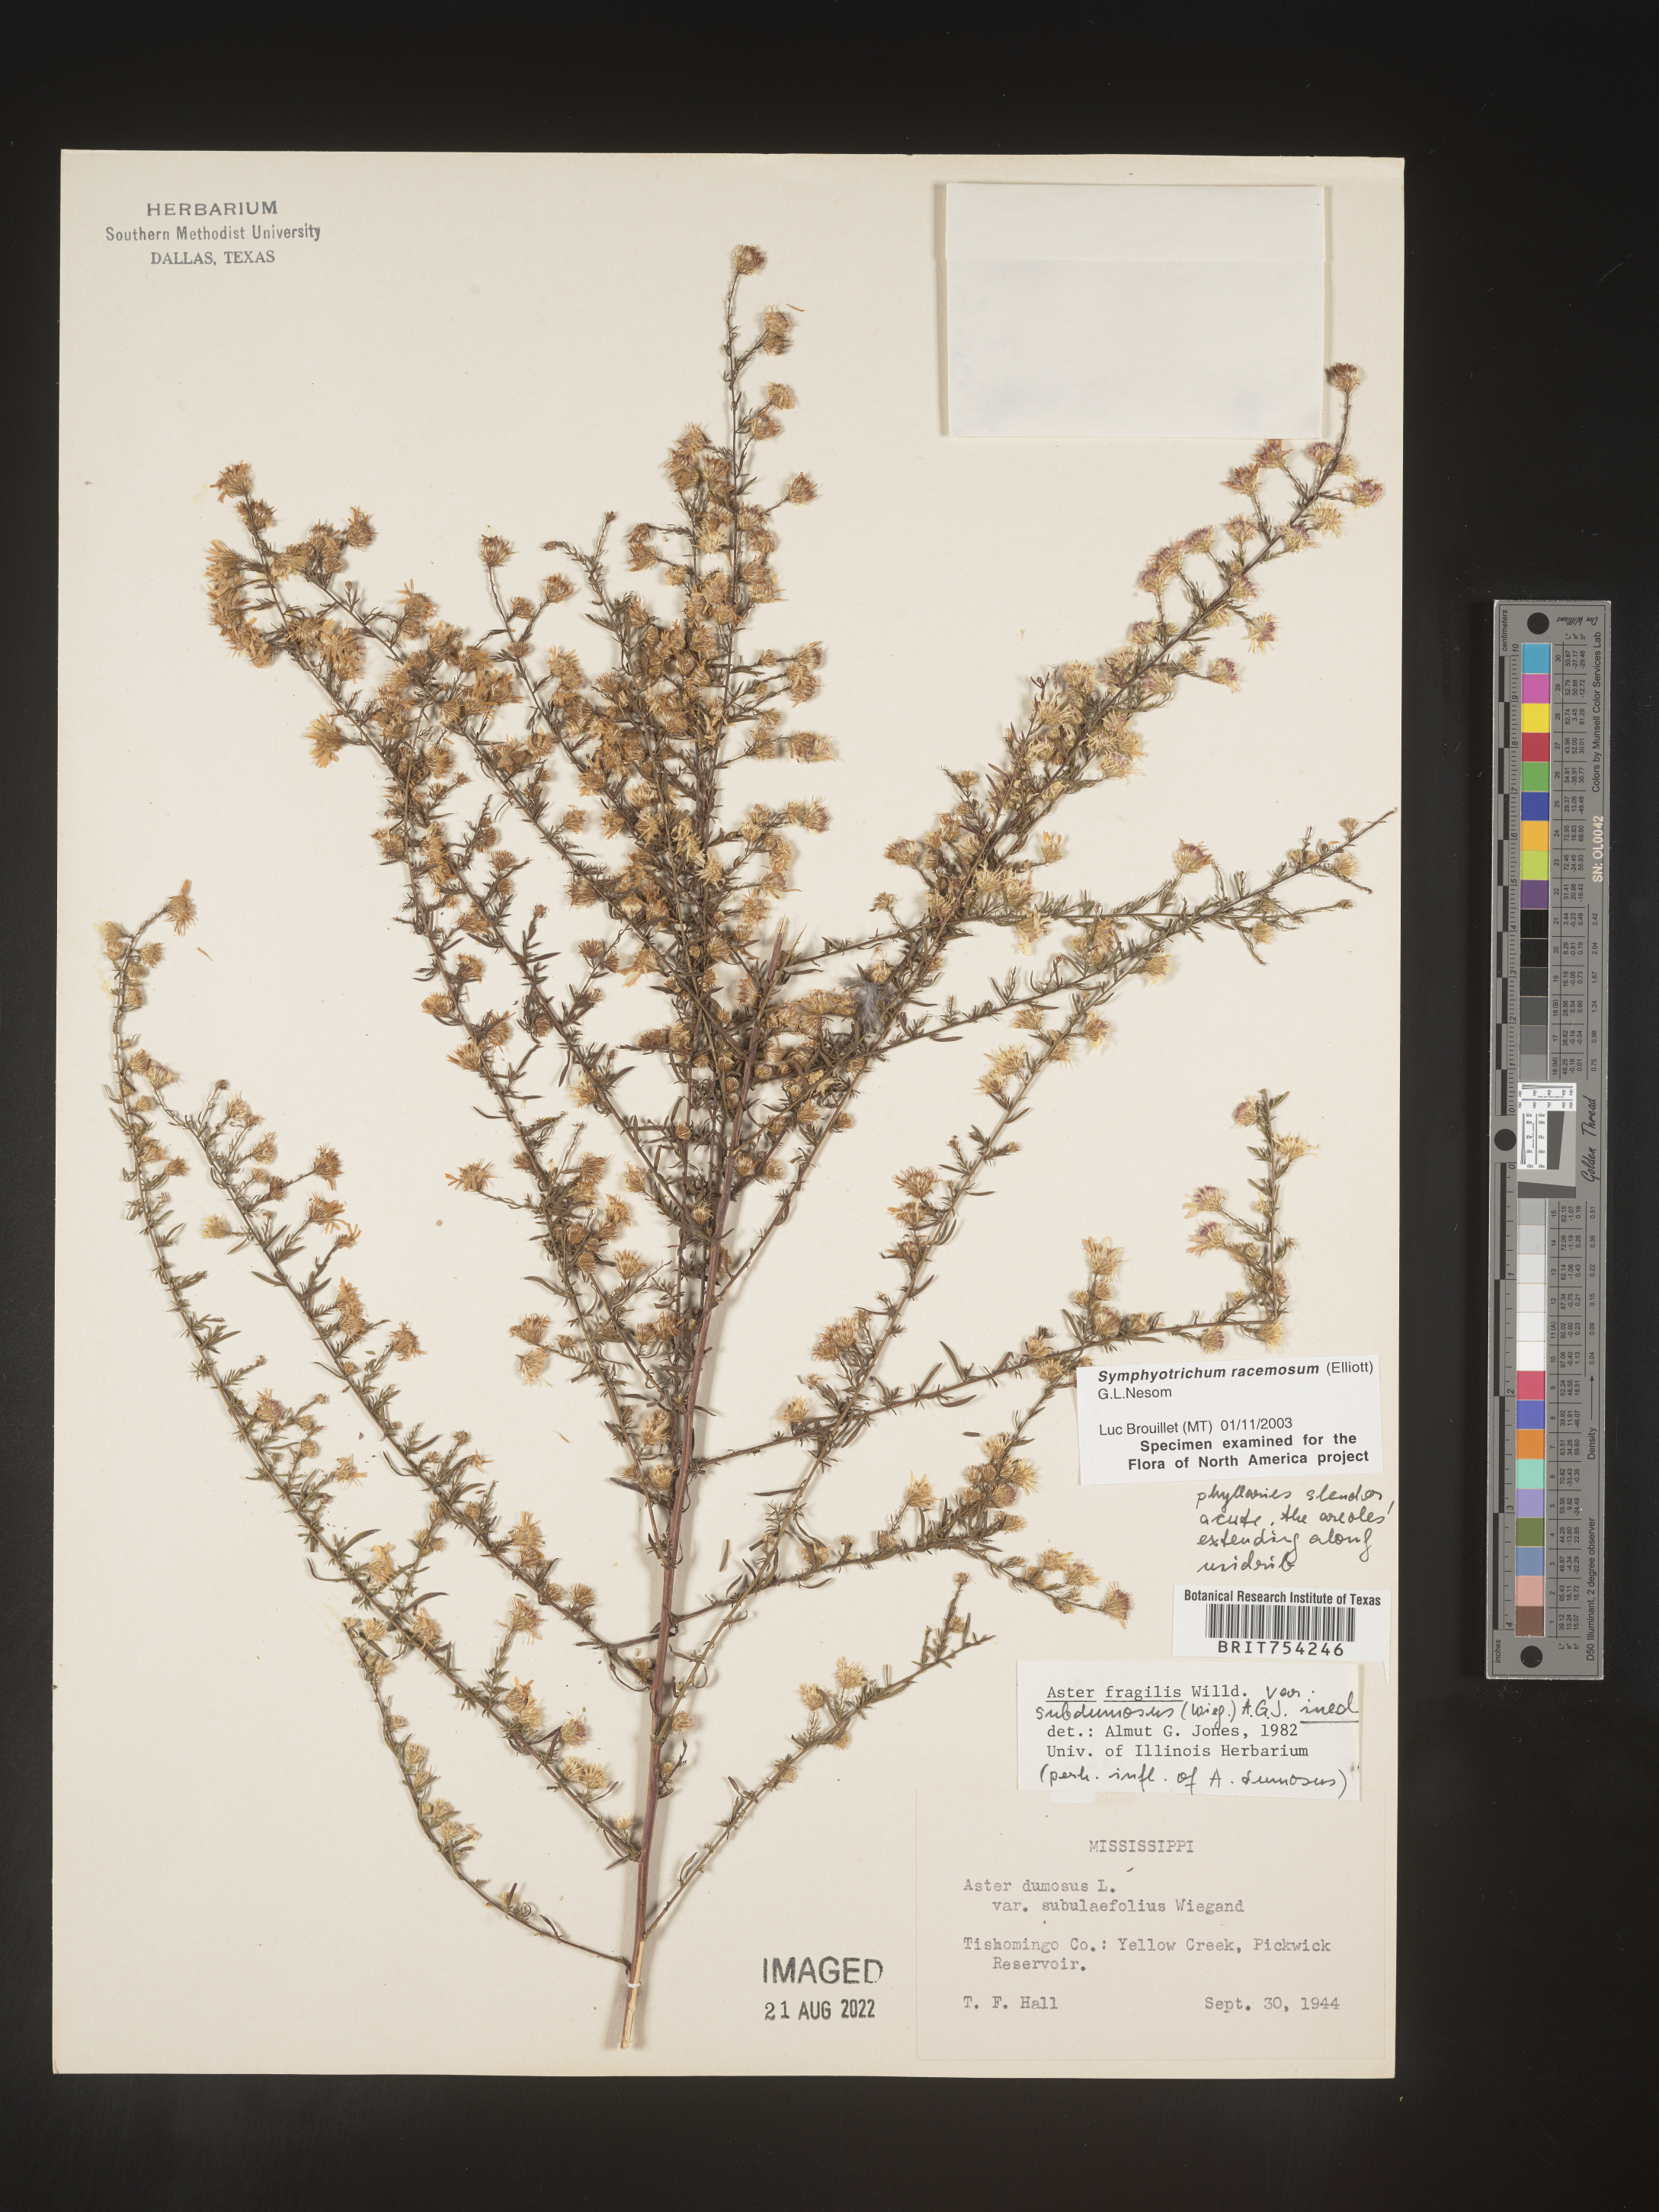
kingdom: Plantae
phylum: Tracheophyta
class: Magnoliopsida
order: Asterales
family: Asteraceae
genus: Symphyotrichum
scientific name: Symphyotrichum racemosum
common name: Small white aster
